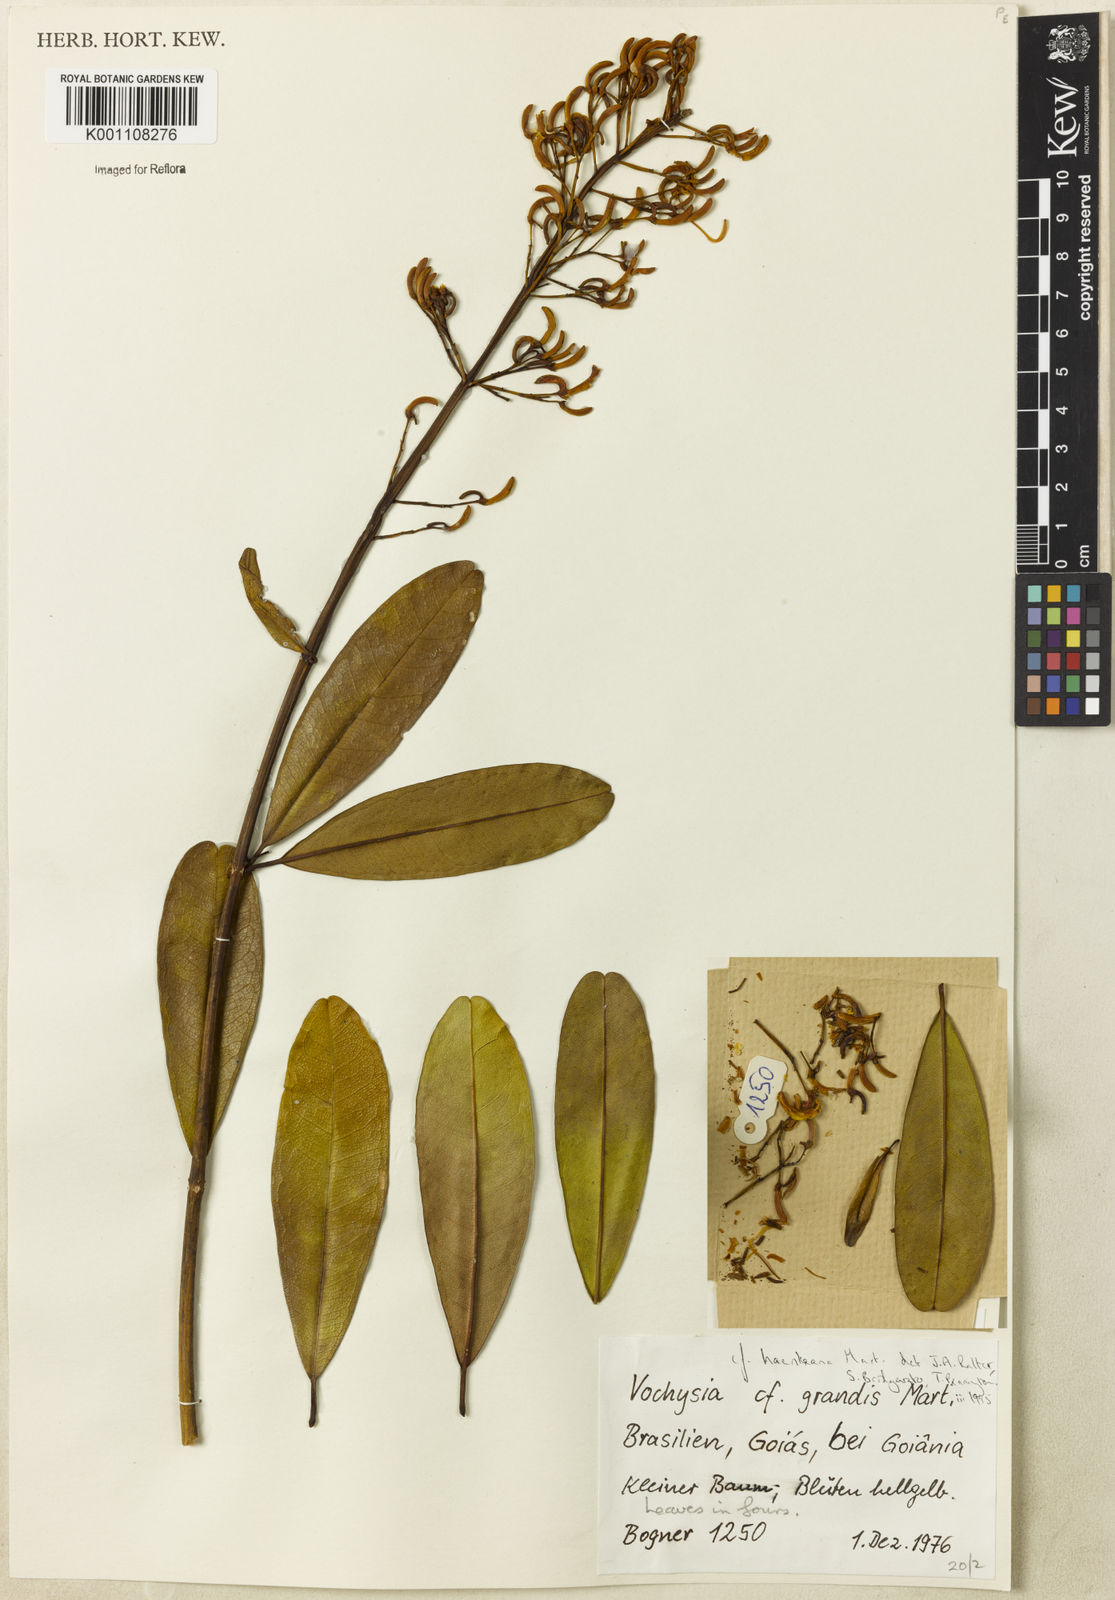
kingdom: Plantae
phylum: Tracheophyta
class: Magnoliopsida
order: Myrtales
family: Vochysiaceae
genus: Vochysia
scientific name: Vochysia haenkeana
